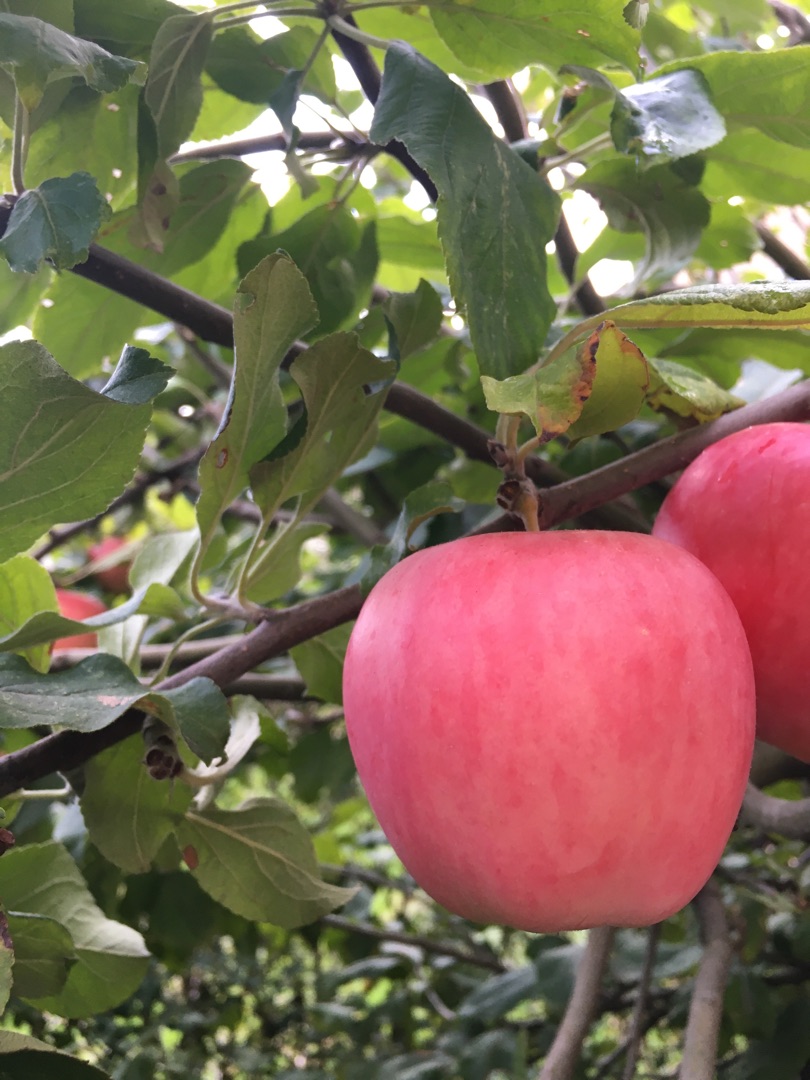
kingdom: Plantae
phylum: Tracheophyta
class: Magnoliopsida
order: Rosales
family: Rosaceae
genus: Malus
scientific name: Malus domestica
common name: Sød-æble
